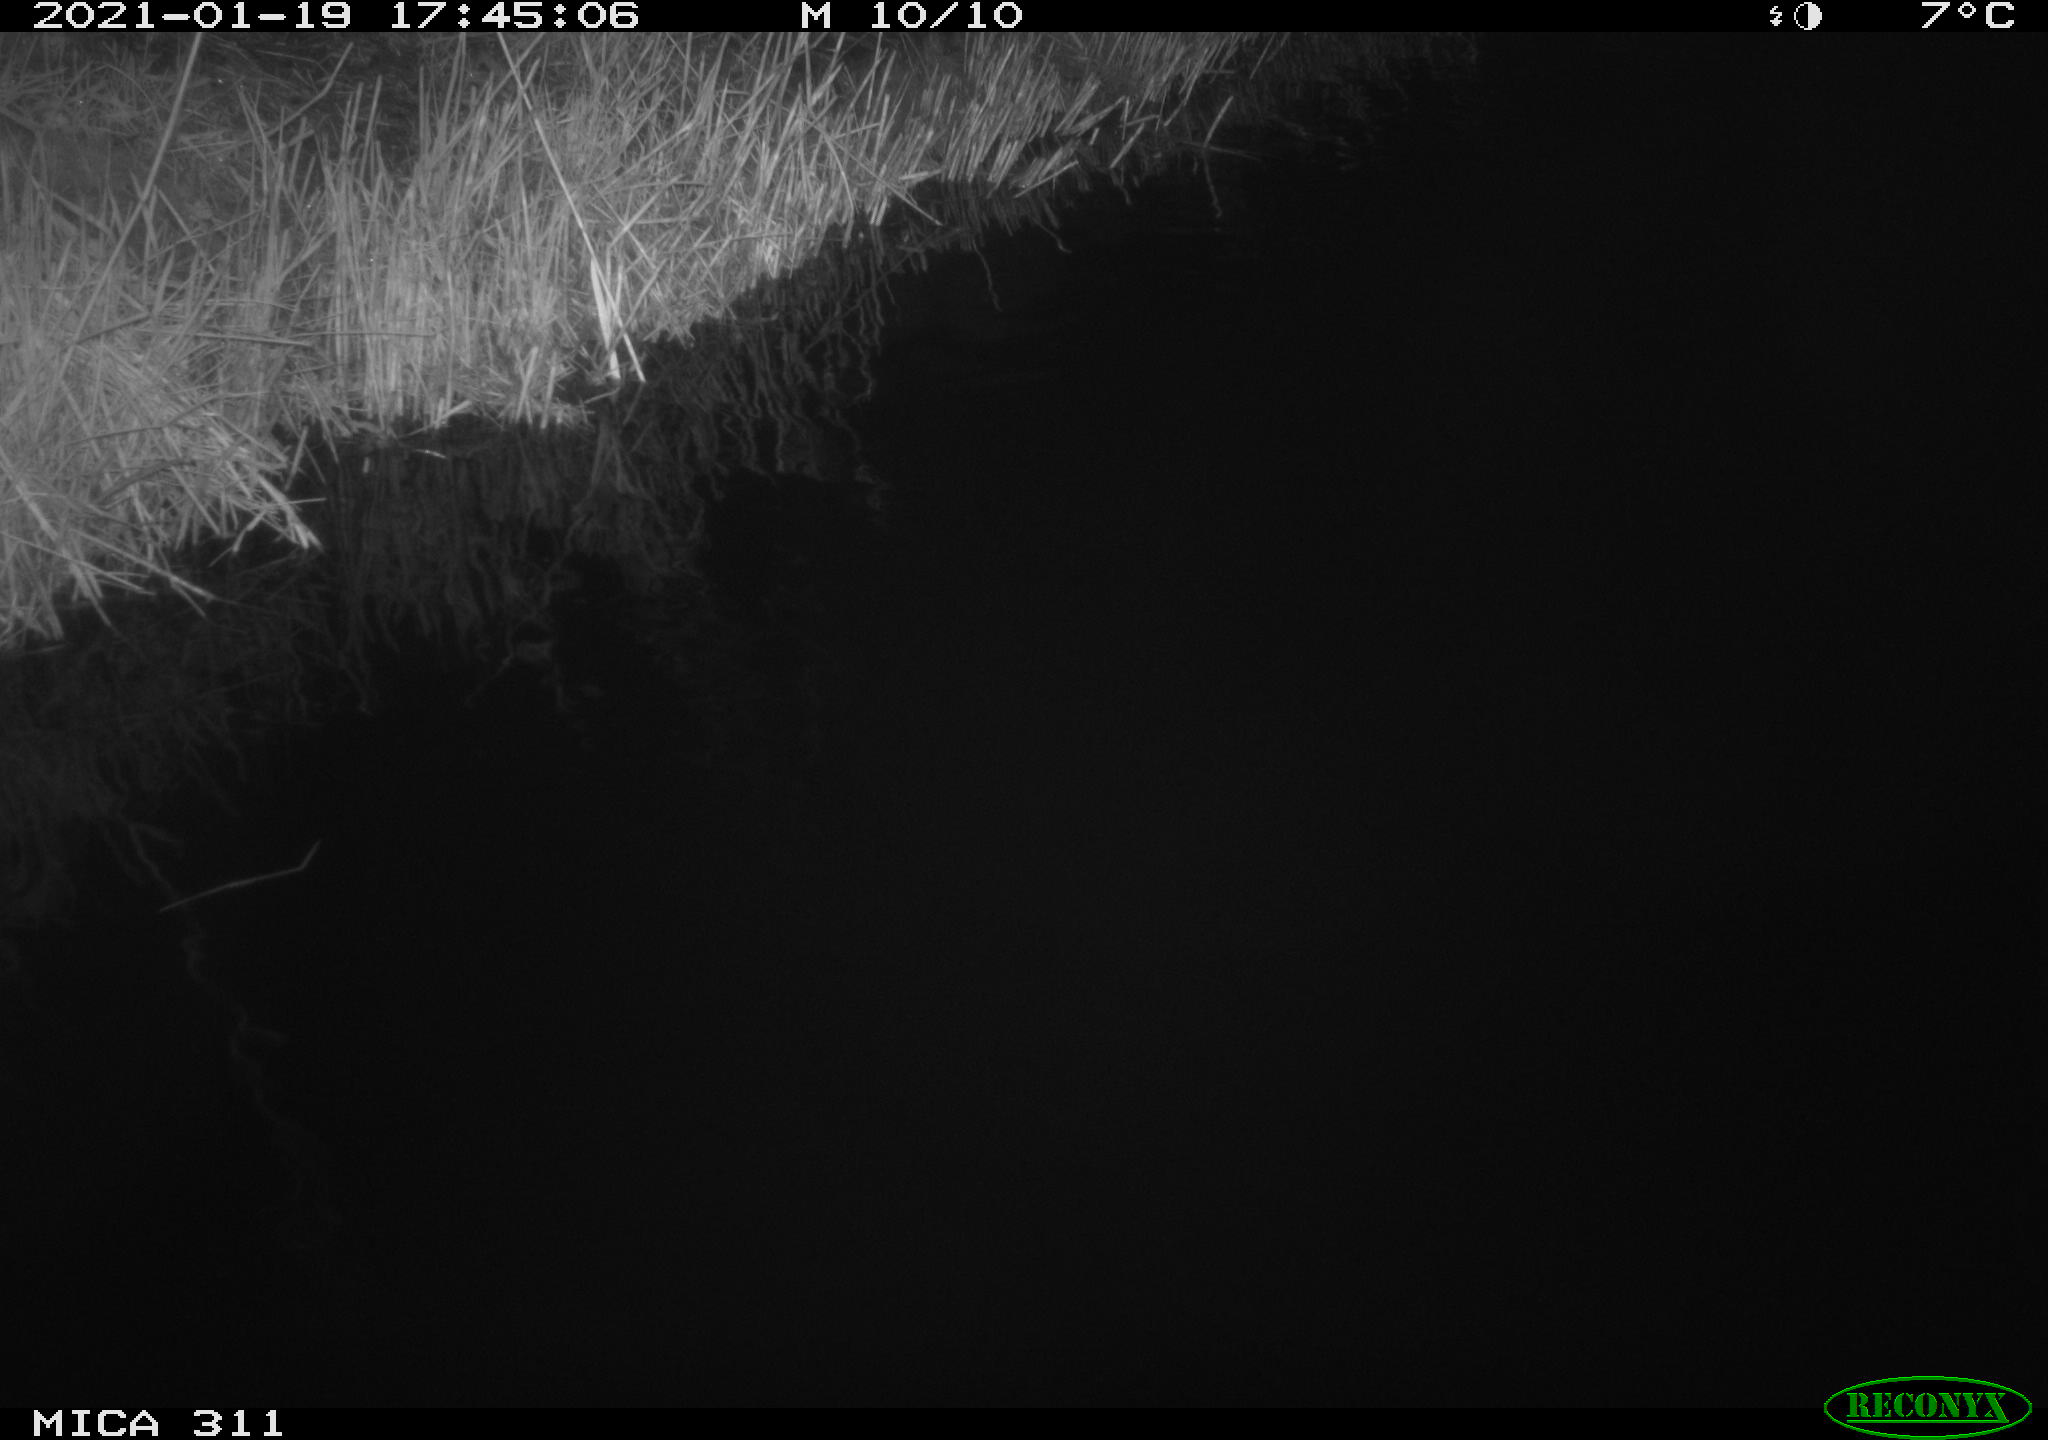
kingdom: Animalia
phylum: Chordata
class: Aves
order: Gruiformes
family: Rallidae
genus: Gallinula
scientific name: Gallinula chloropus
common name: Common moorhen
